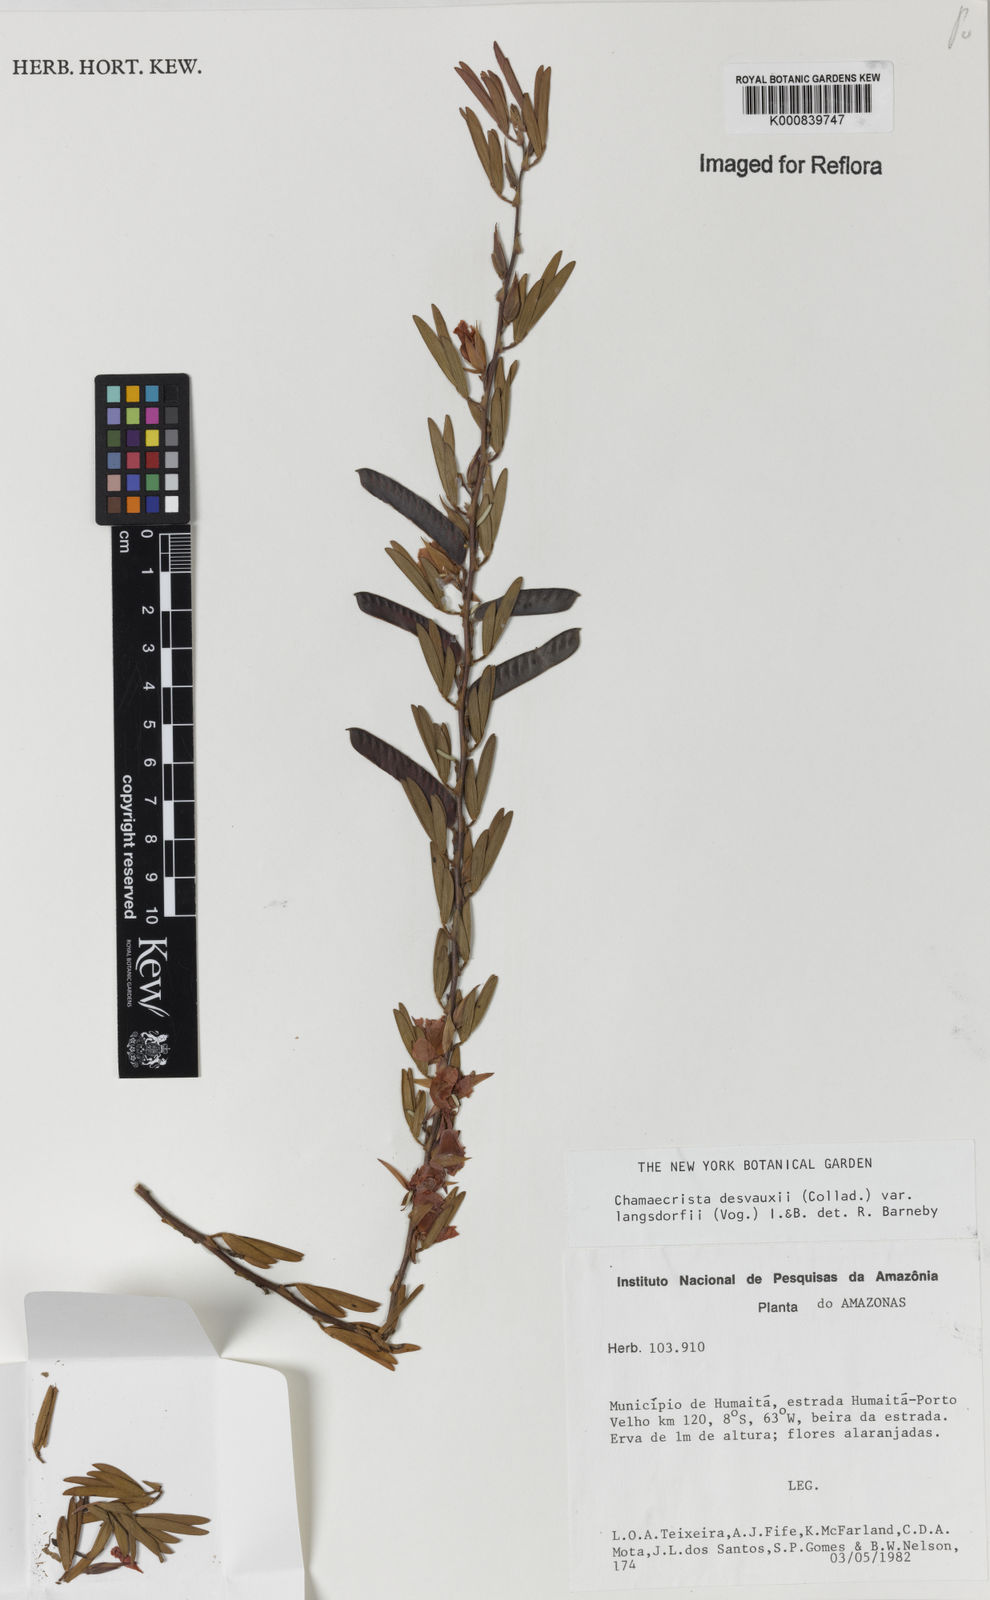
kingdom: Plantae
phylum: Tracheophyta
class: Magnoliopsida
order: Fabales
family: Fabaceae
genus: Chamaecrista
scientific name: Chamaecrista langsdorffii
